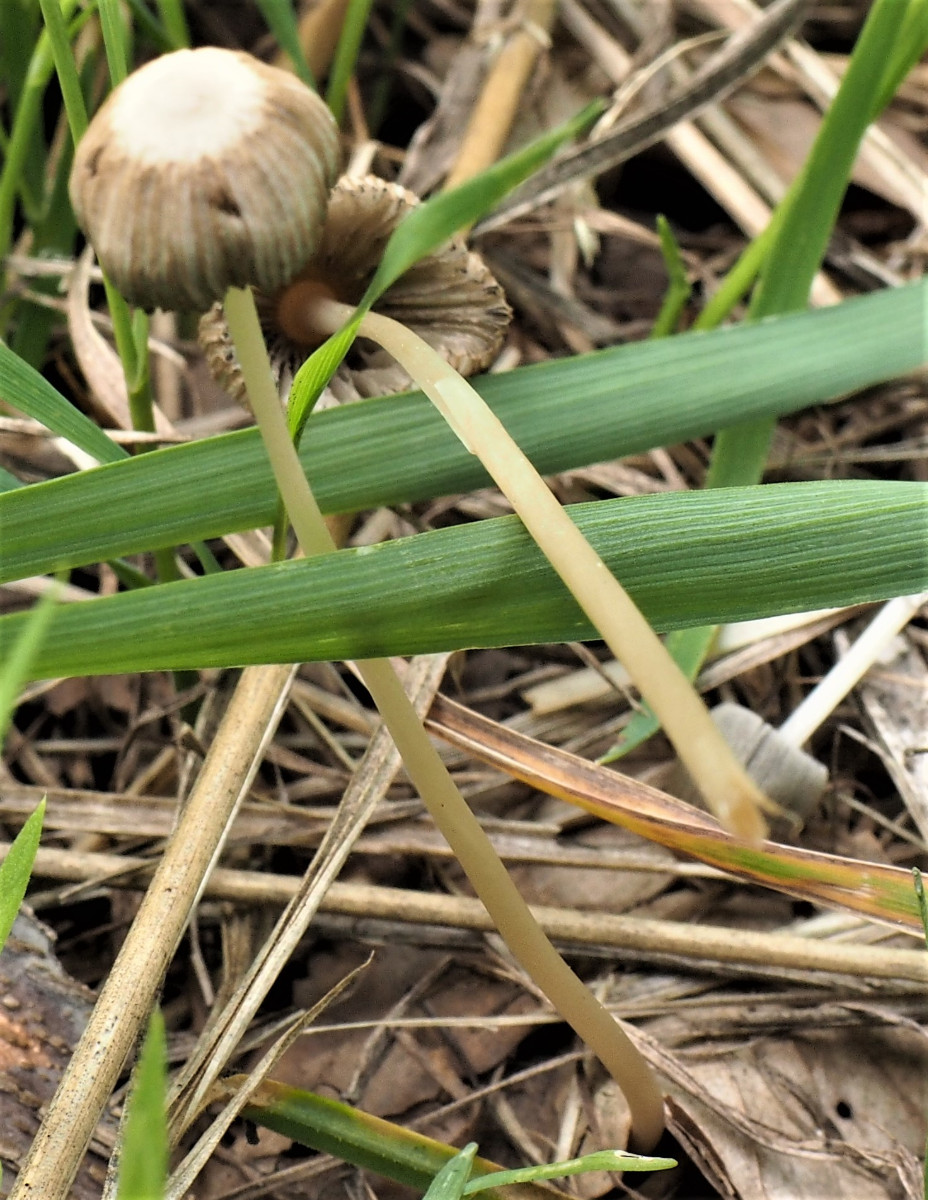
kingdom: Fungi
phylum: Basidiomycota
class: Agaricomycetes
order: Agaricales
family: Psathyrellaceae
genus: Parasola
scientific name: Parasola
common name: hjulhat
